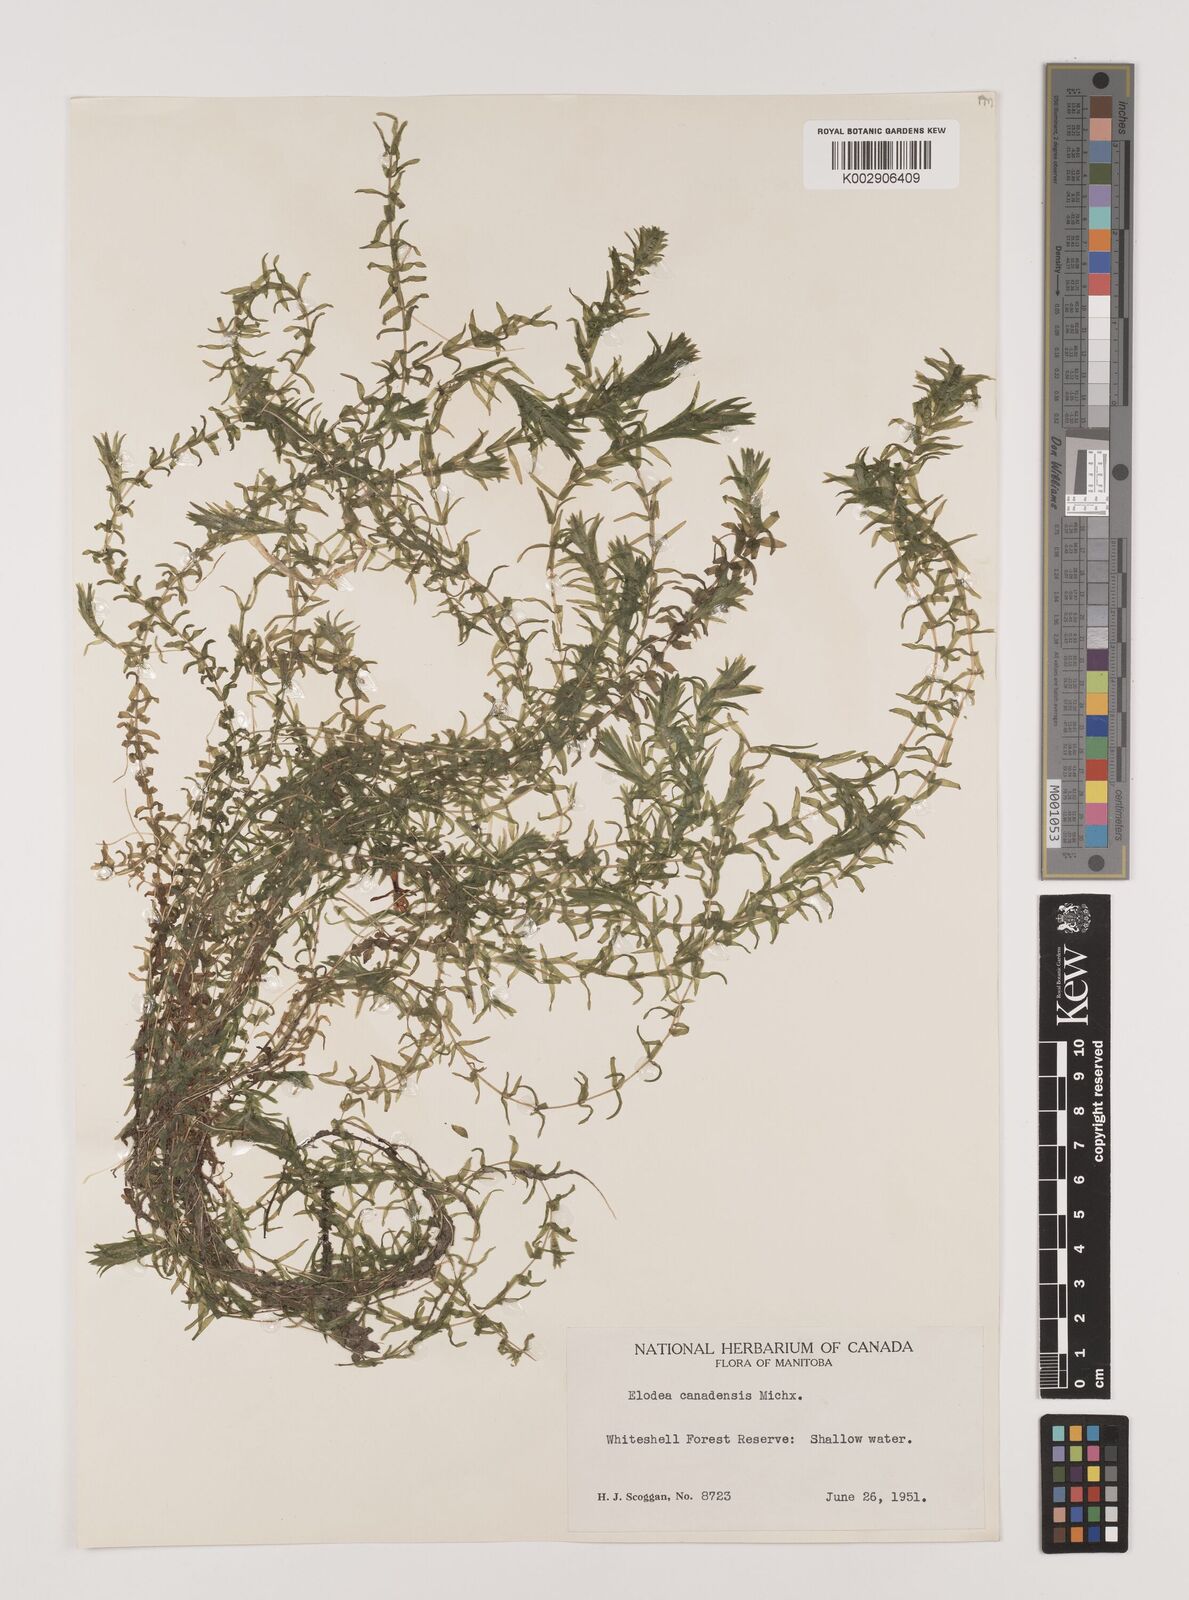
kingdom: Plantae
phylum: Tracheophyta
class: Liliopsida
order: Alismatales
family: Hydrocharitaceae
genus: Elodea
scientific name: Elodea canadensis
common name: Canadian waterweed
